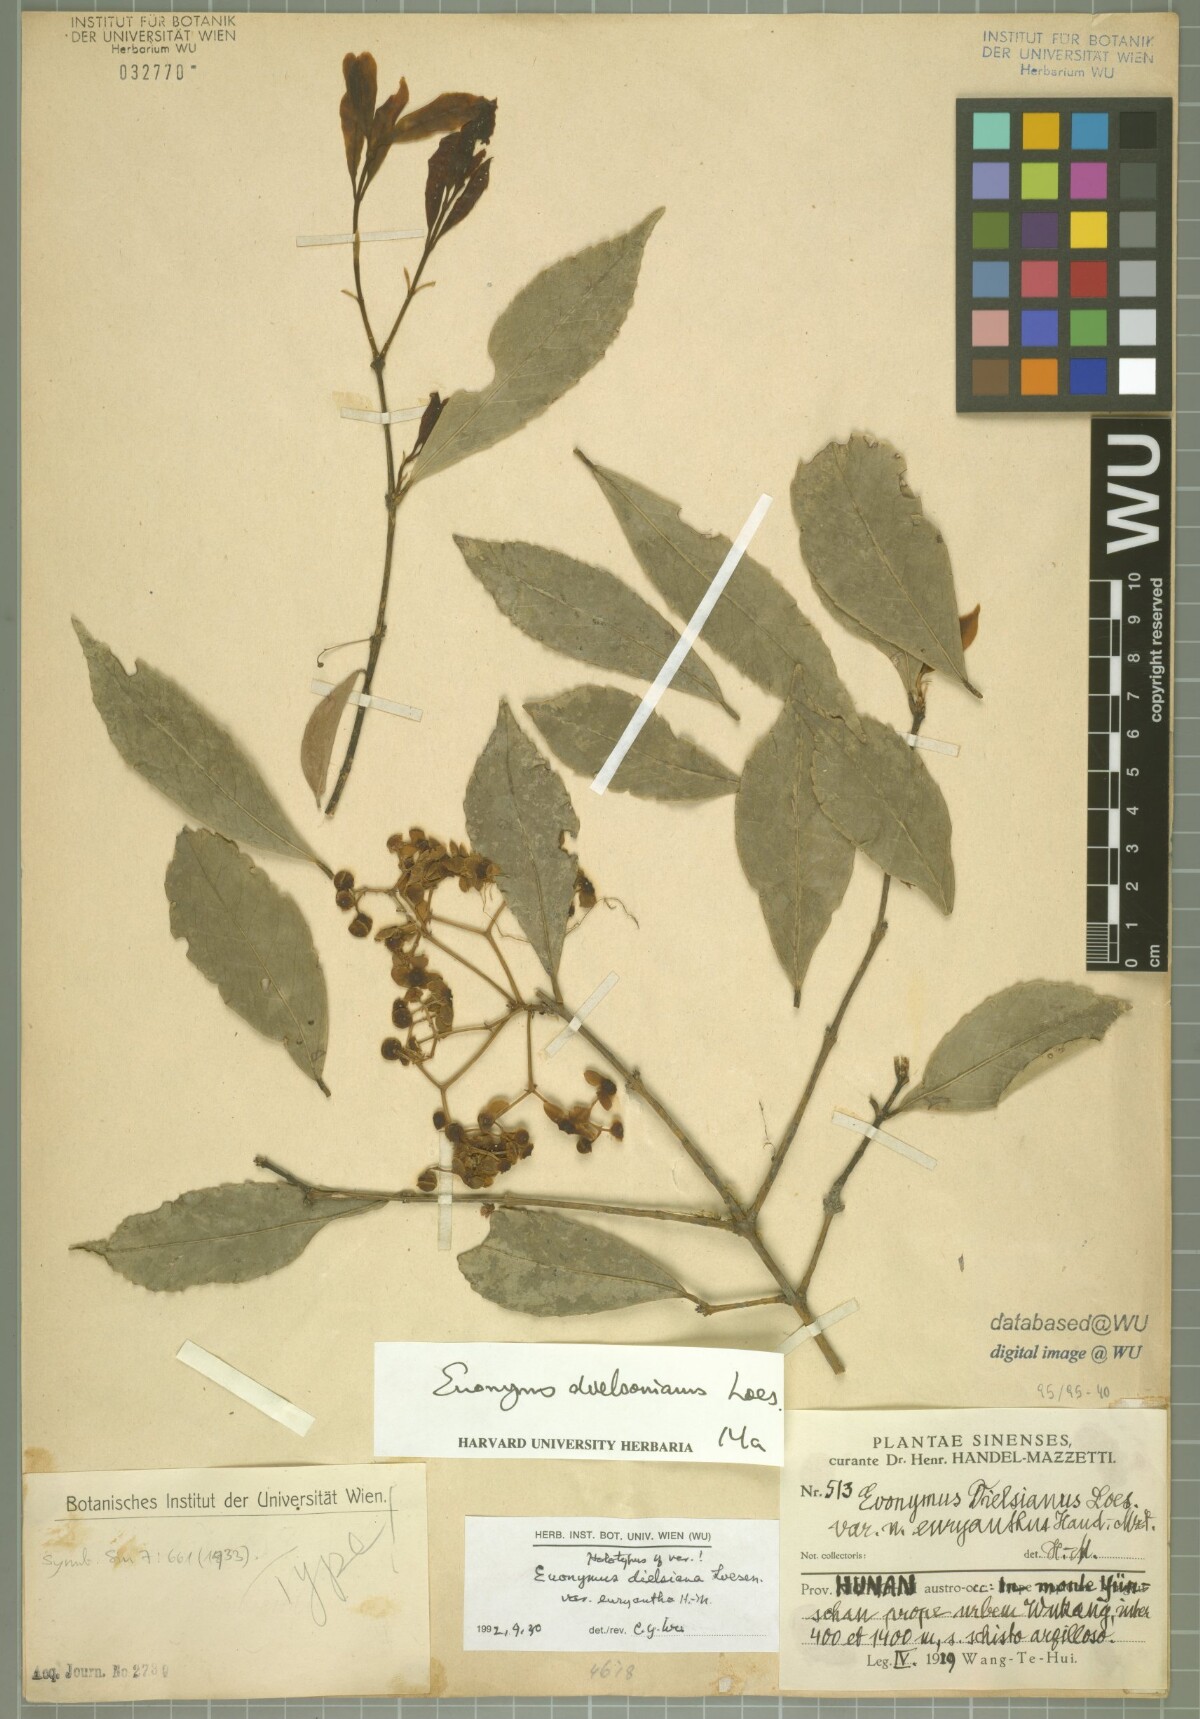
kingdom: Plantae
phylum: Tracheophyta
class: Magnoliopsida
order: Celastrales
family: Celastraceae
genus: Euonymus
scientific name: Euonymus dielsianus
